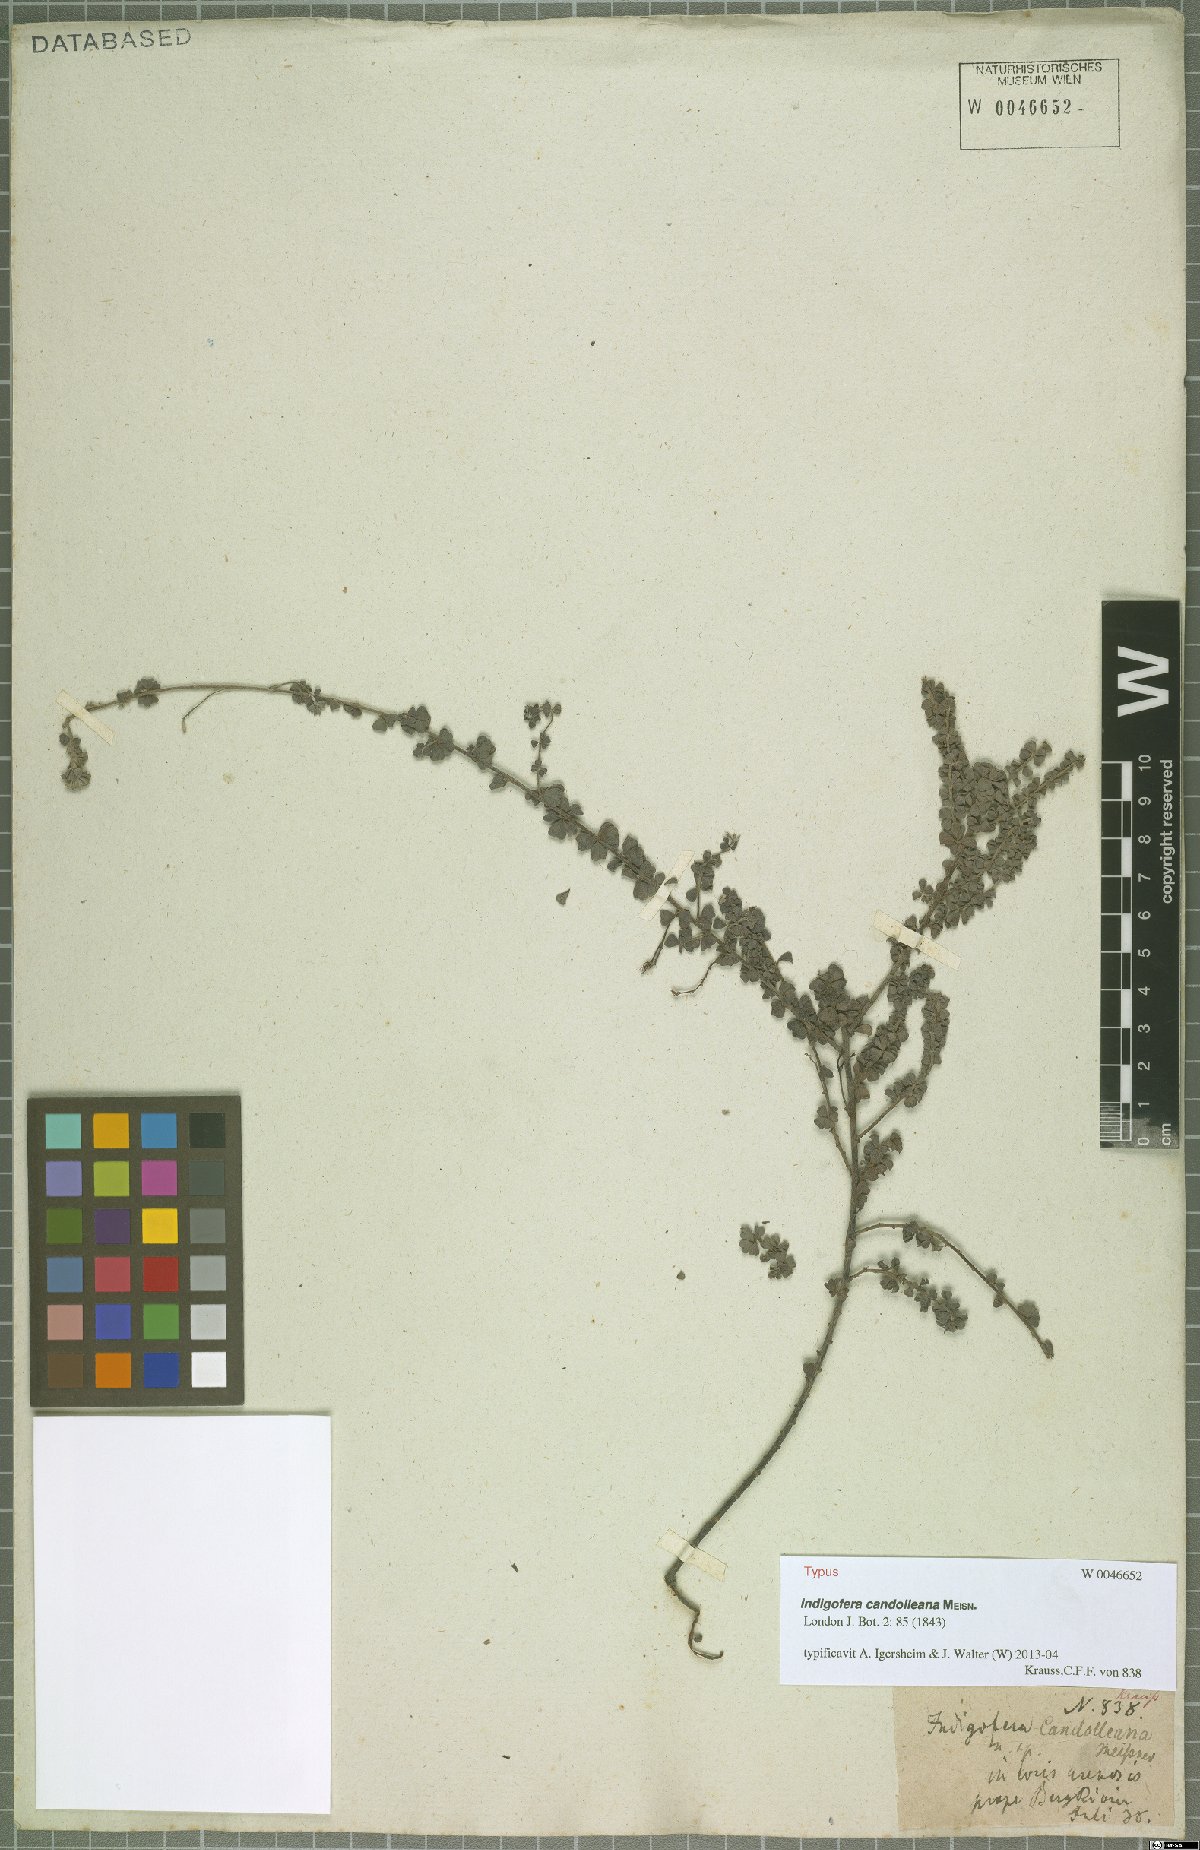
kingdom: Plantae
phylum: Tracheophyta
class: Magnoliopsida
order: Fabales
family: Fabaceae
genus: Indigofera
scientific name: Indigofera candolleana
